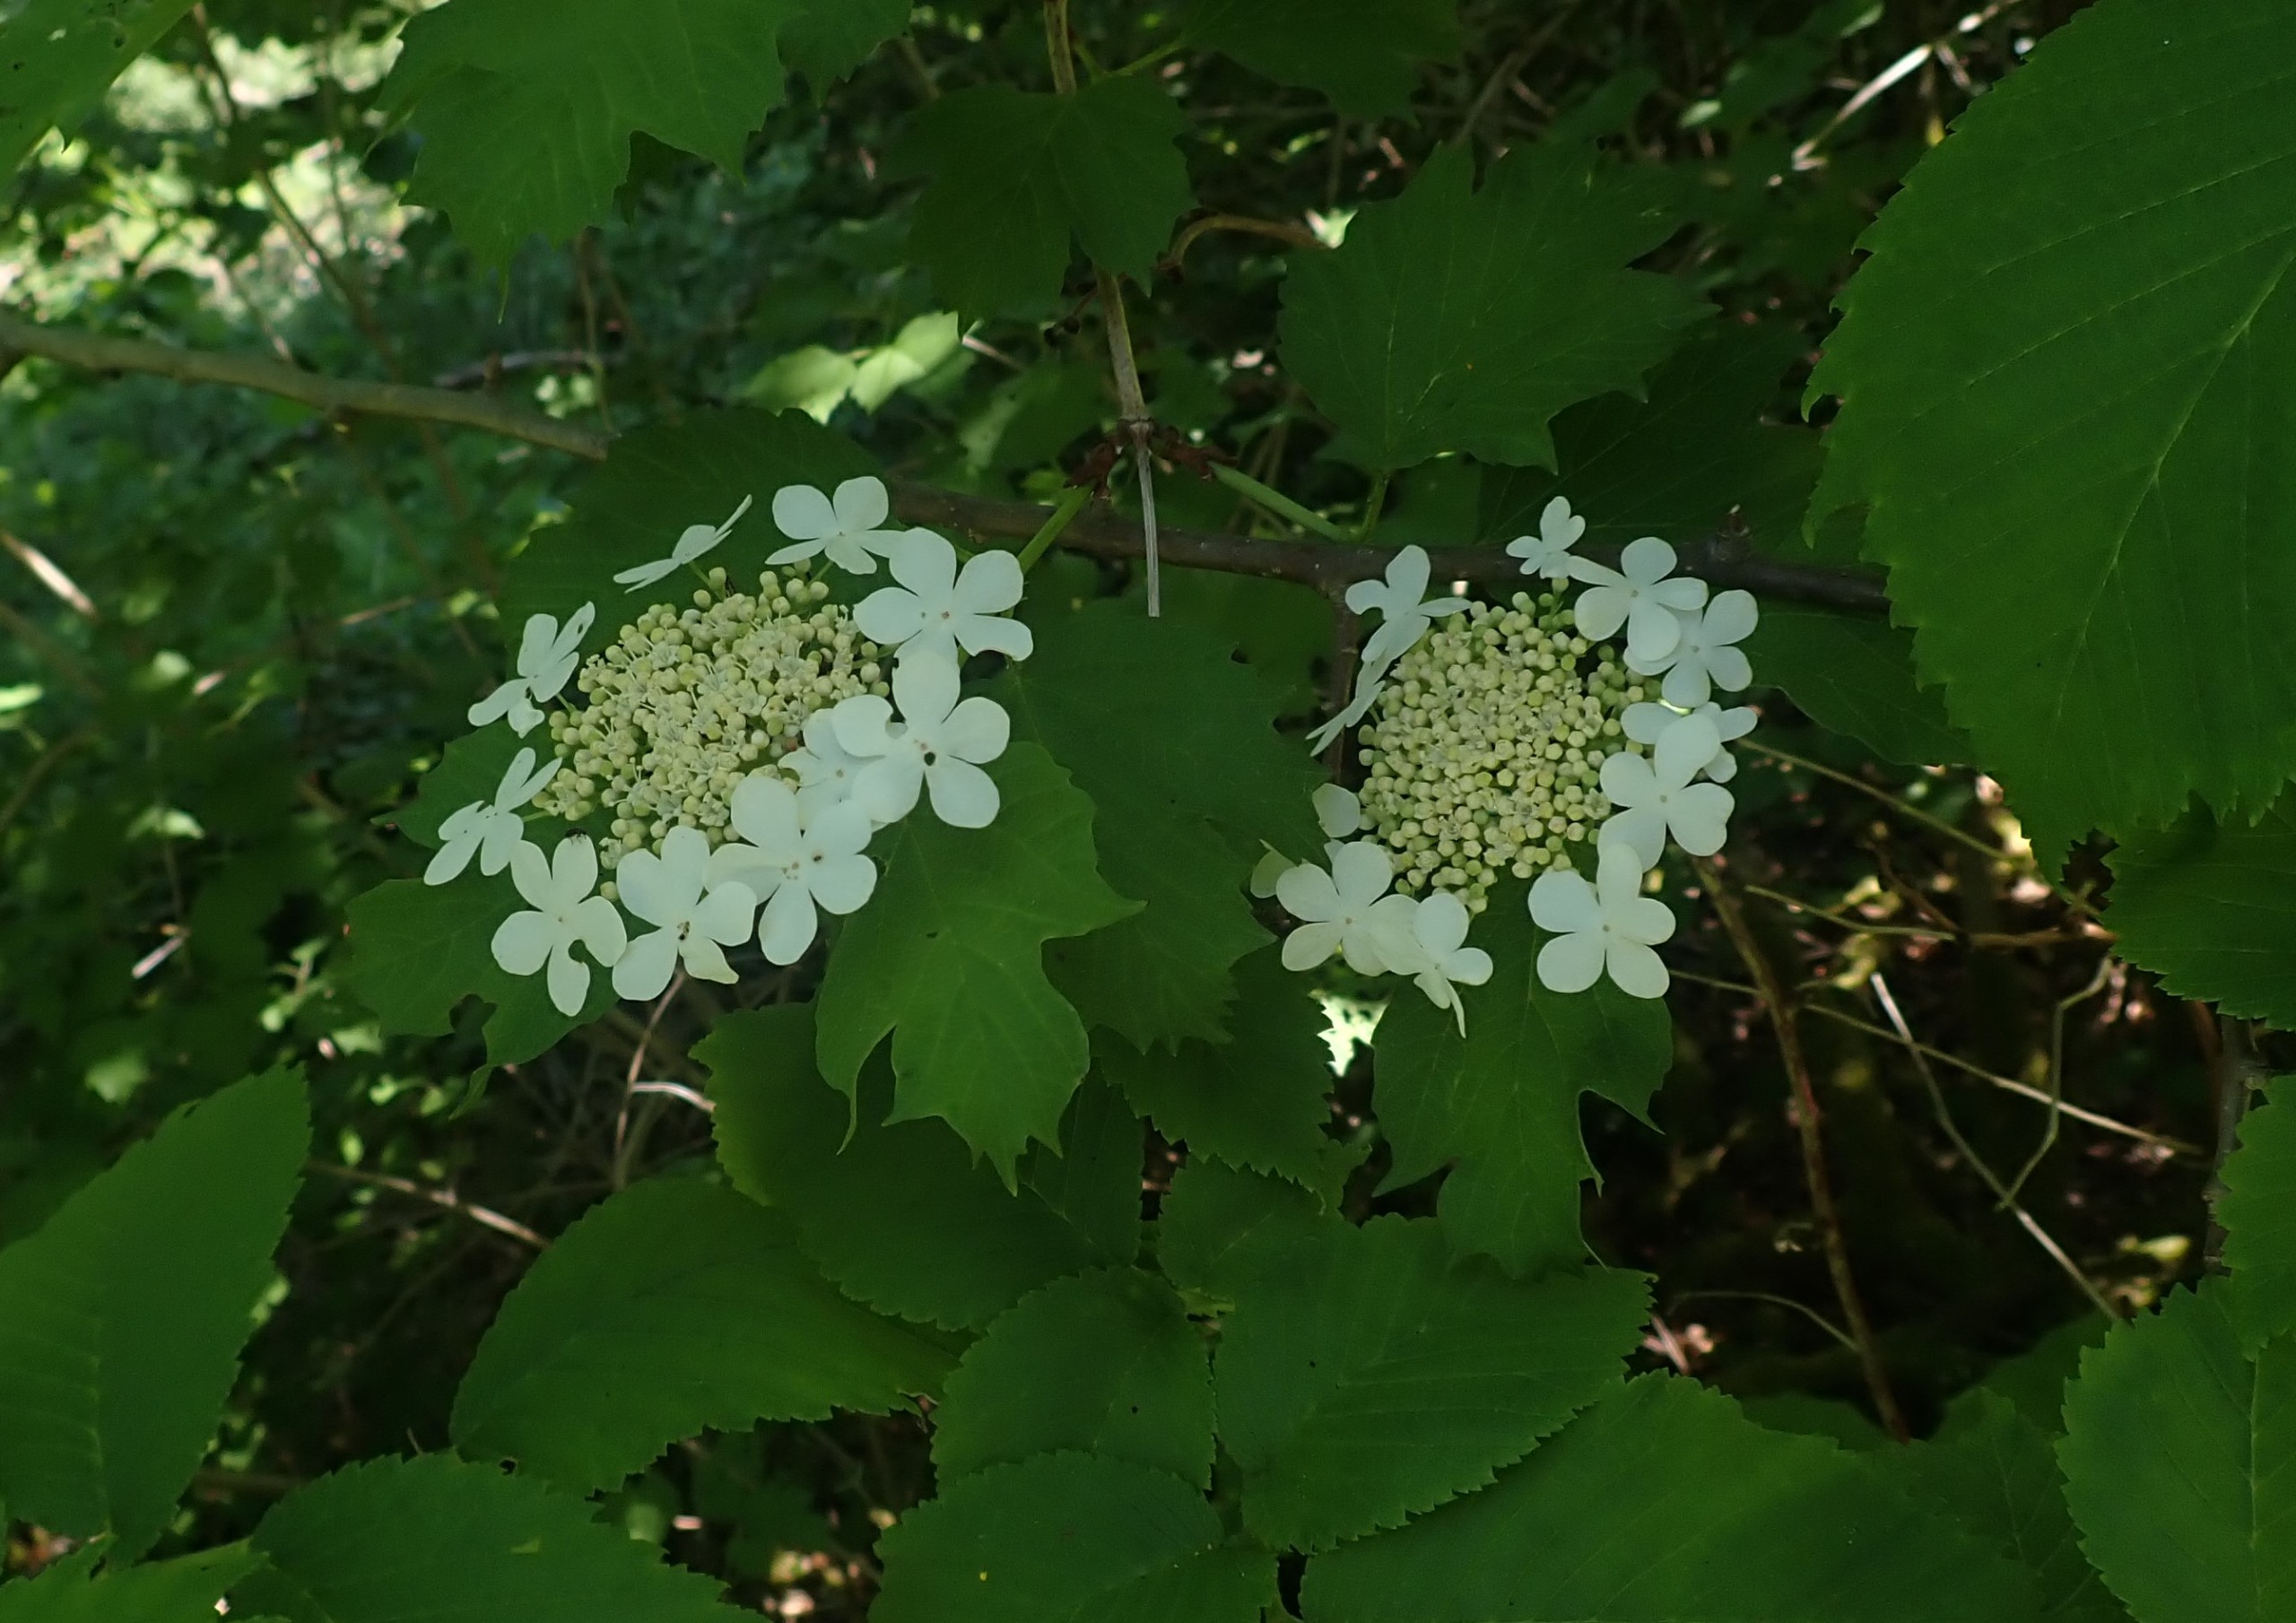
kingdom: Plantae
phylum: Tracheophyta
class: Magnoliopsida
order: Dipsacales
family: Viburnaceae
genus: Viburnum
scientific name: Viburnum opulus
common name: Kvalkved
